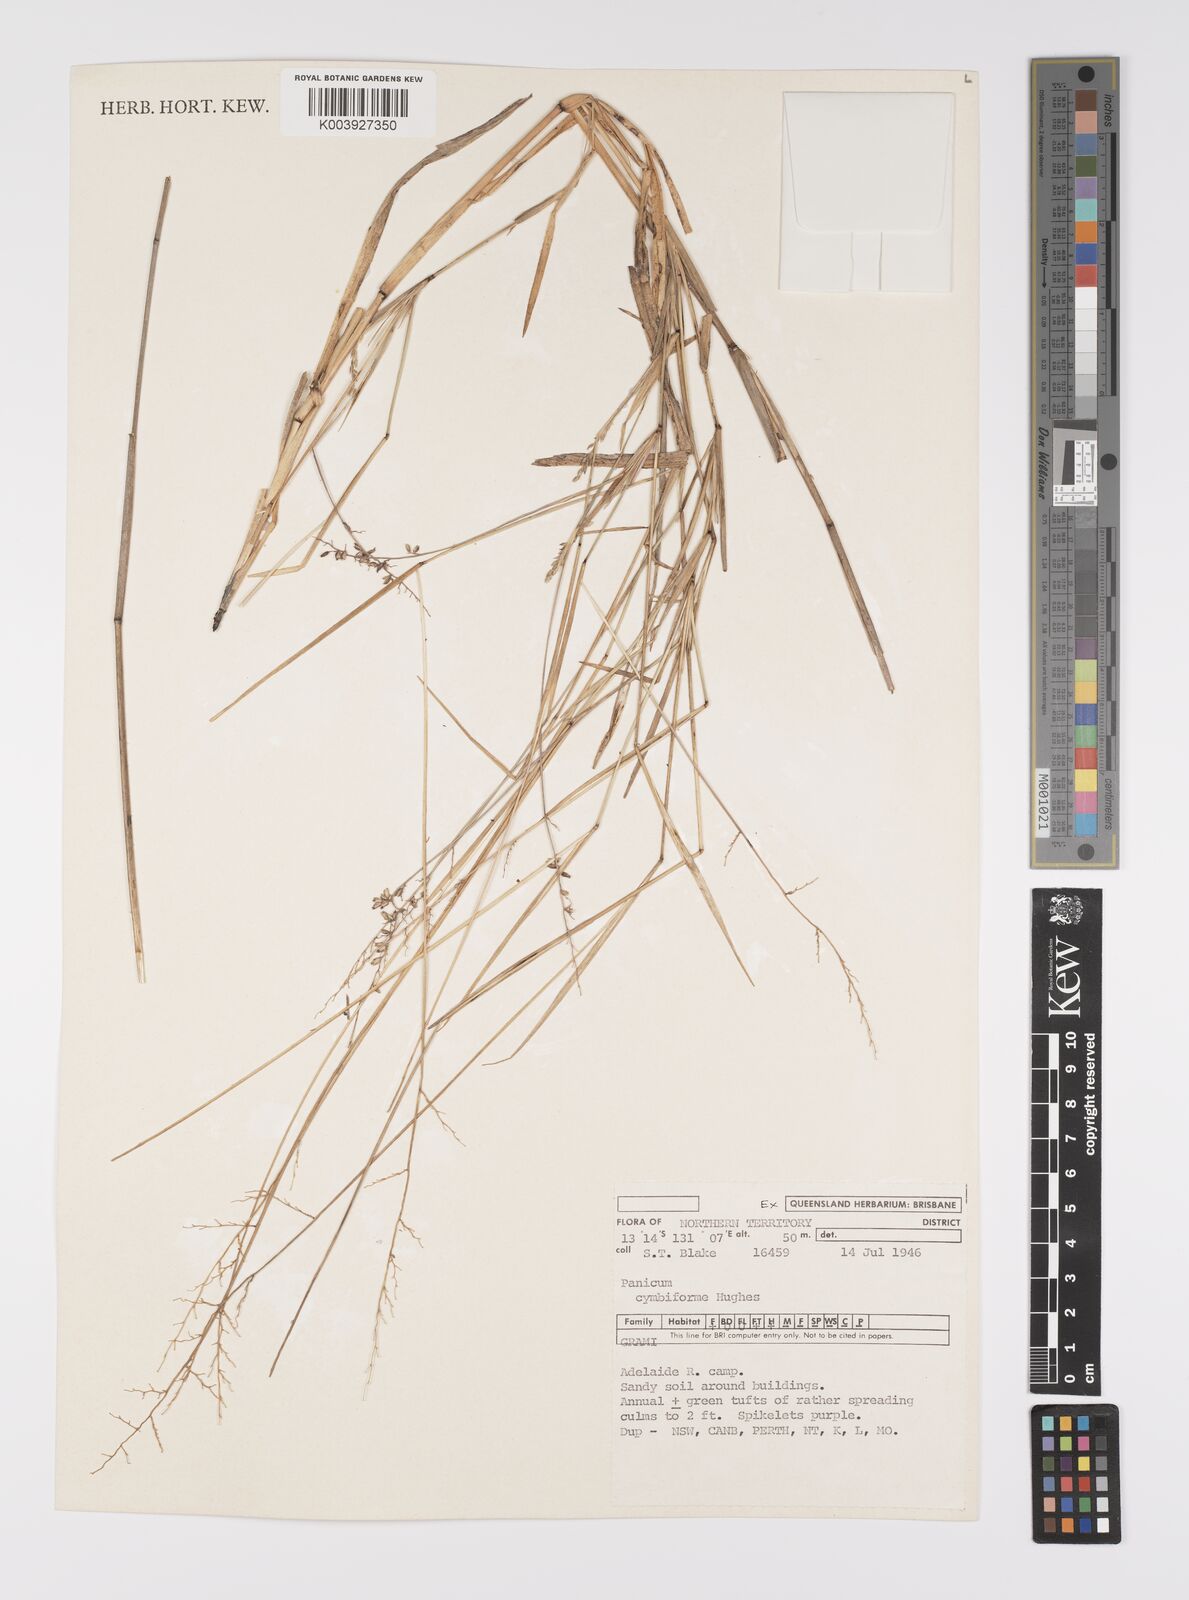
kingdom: Plantae
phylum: Tracheophyta
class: Liliopsida
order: Poales
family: Poaceae
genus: Whiteochloa
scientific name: Whiteochloa cymbiformis
